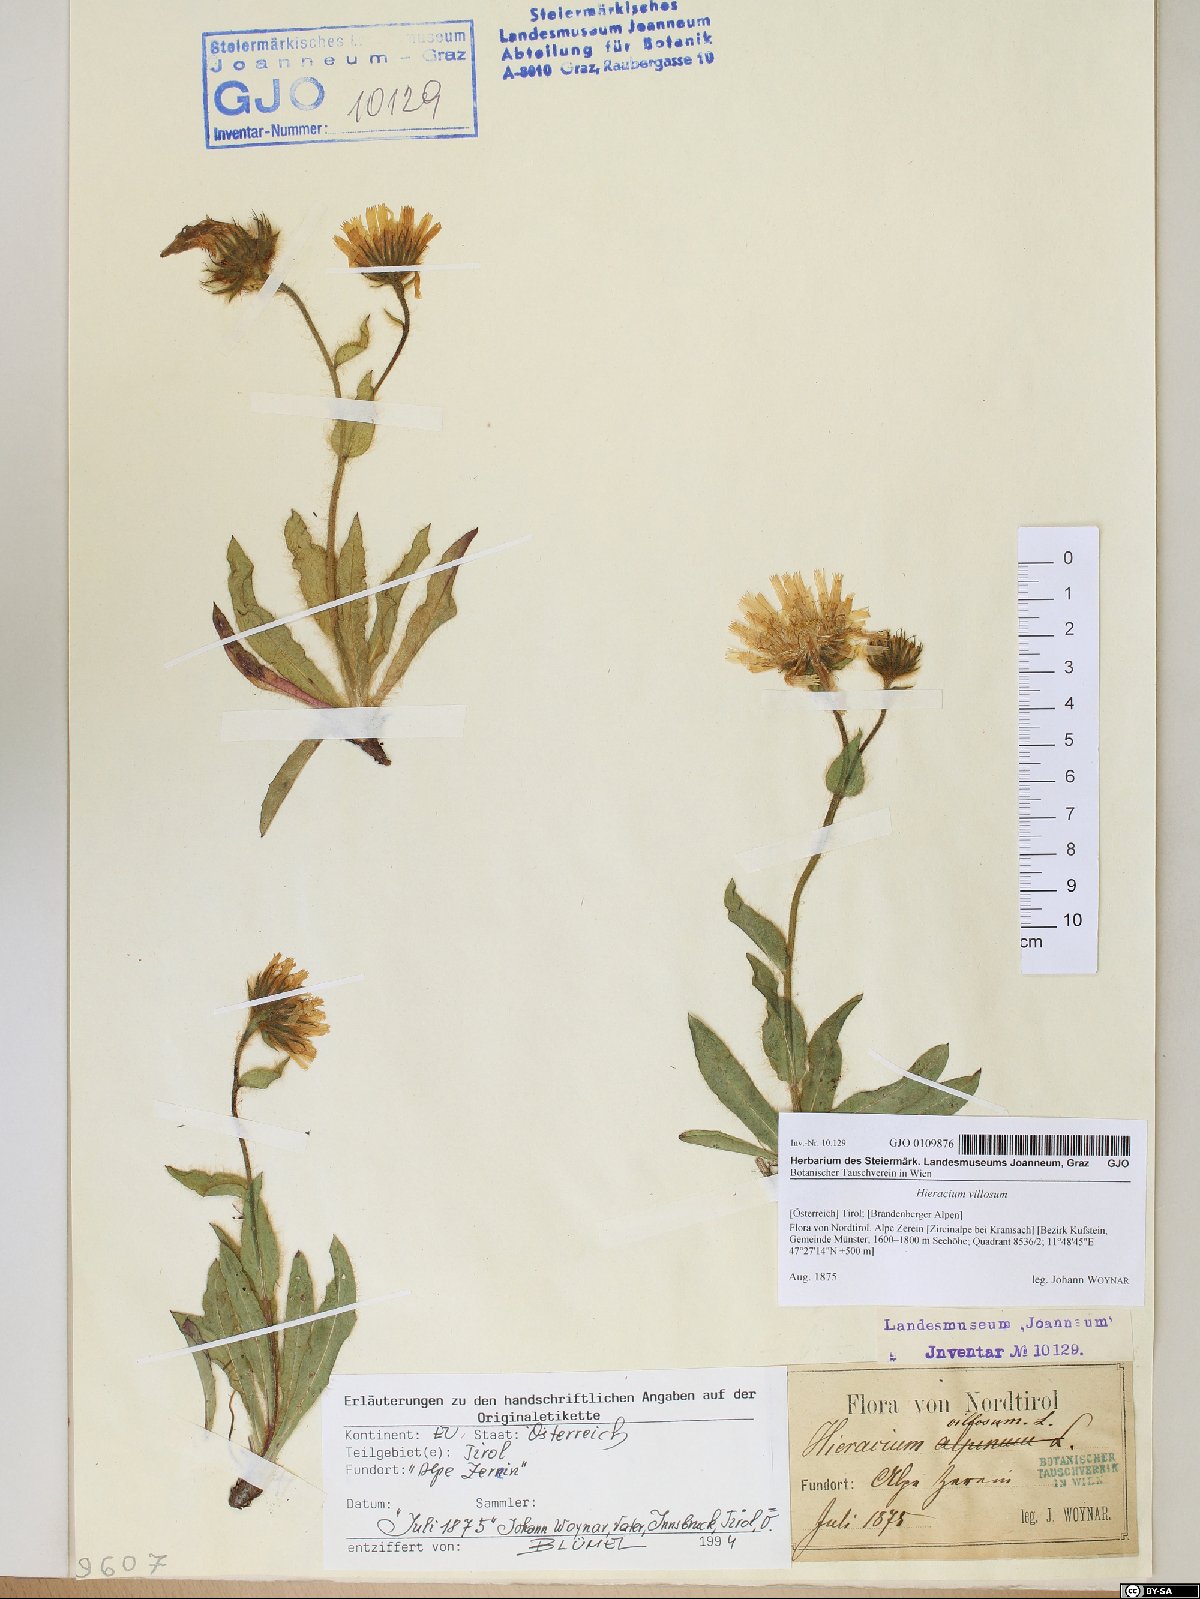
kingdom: Plantae
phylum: Tracheophyta
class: Magnoliopsida
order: Asterales
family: Asteraceae
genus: Hieracium
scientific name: Hieracium villosum
